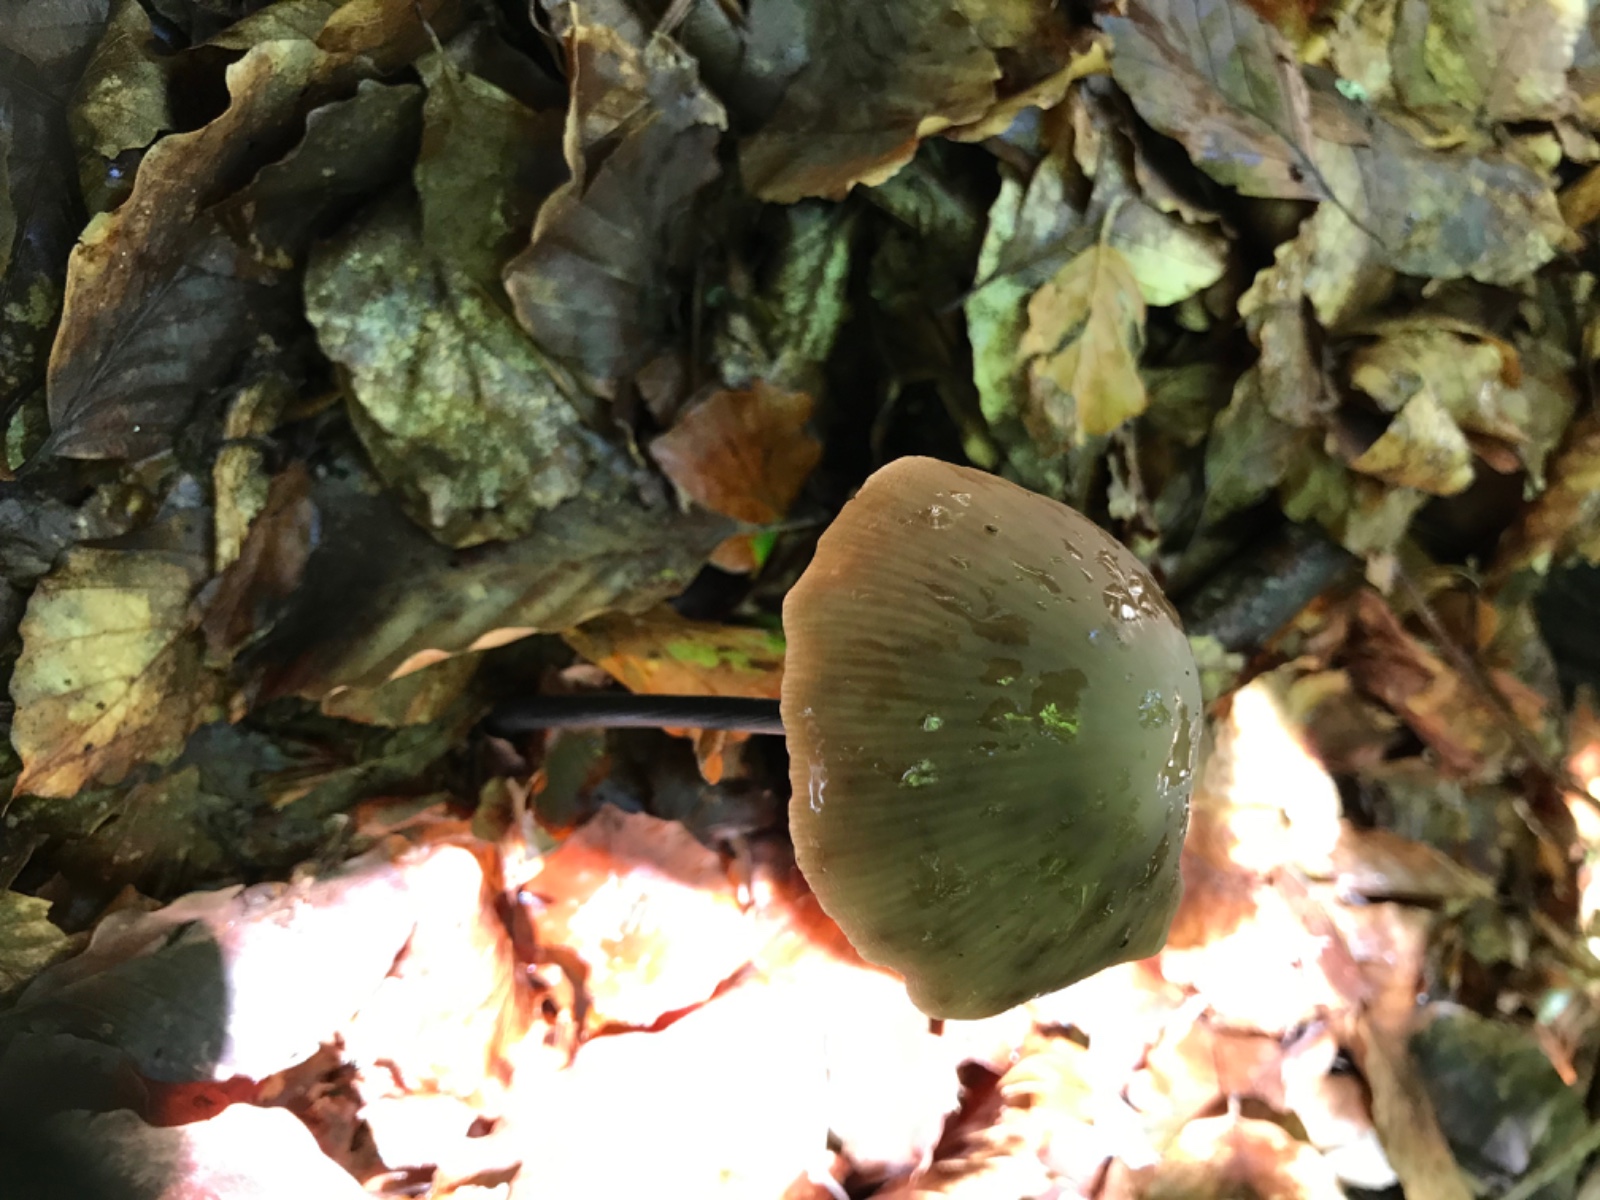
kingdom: Fungi
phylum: Basidiomycota
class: Agaricomycetes
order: Agaricales
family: Omphalotaceae
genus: Mycetinis
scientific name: Mycetinis alliaceus
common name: stor løghat
